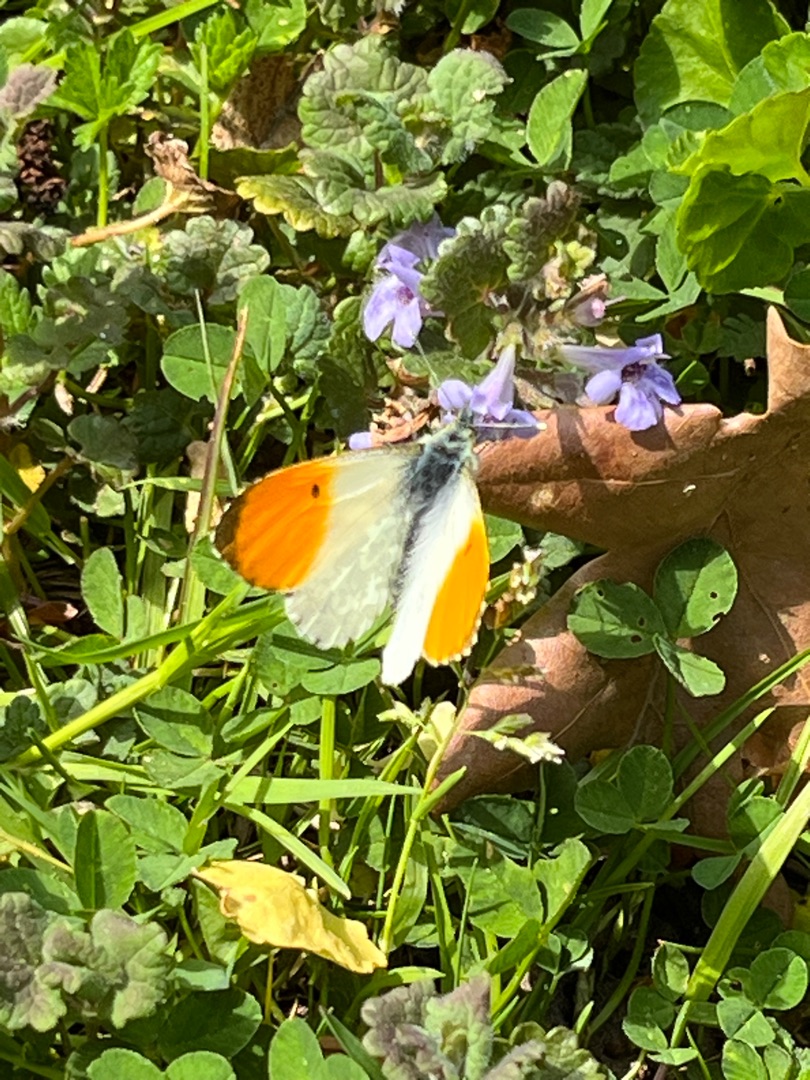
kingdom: Animalia
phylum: Arthropoda
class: Insecta
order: Lepidoptera
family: Pieridae
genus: Anthocharis
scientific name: Anthocharis cardamines
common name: Aurora
